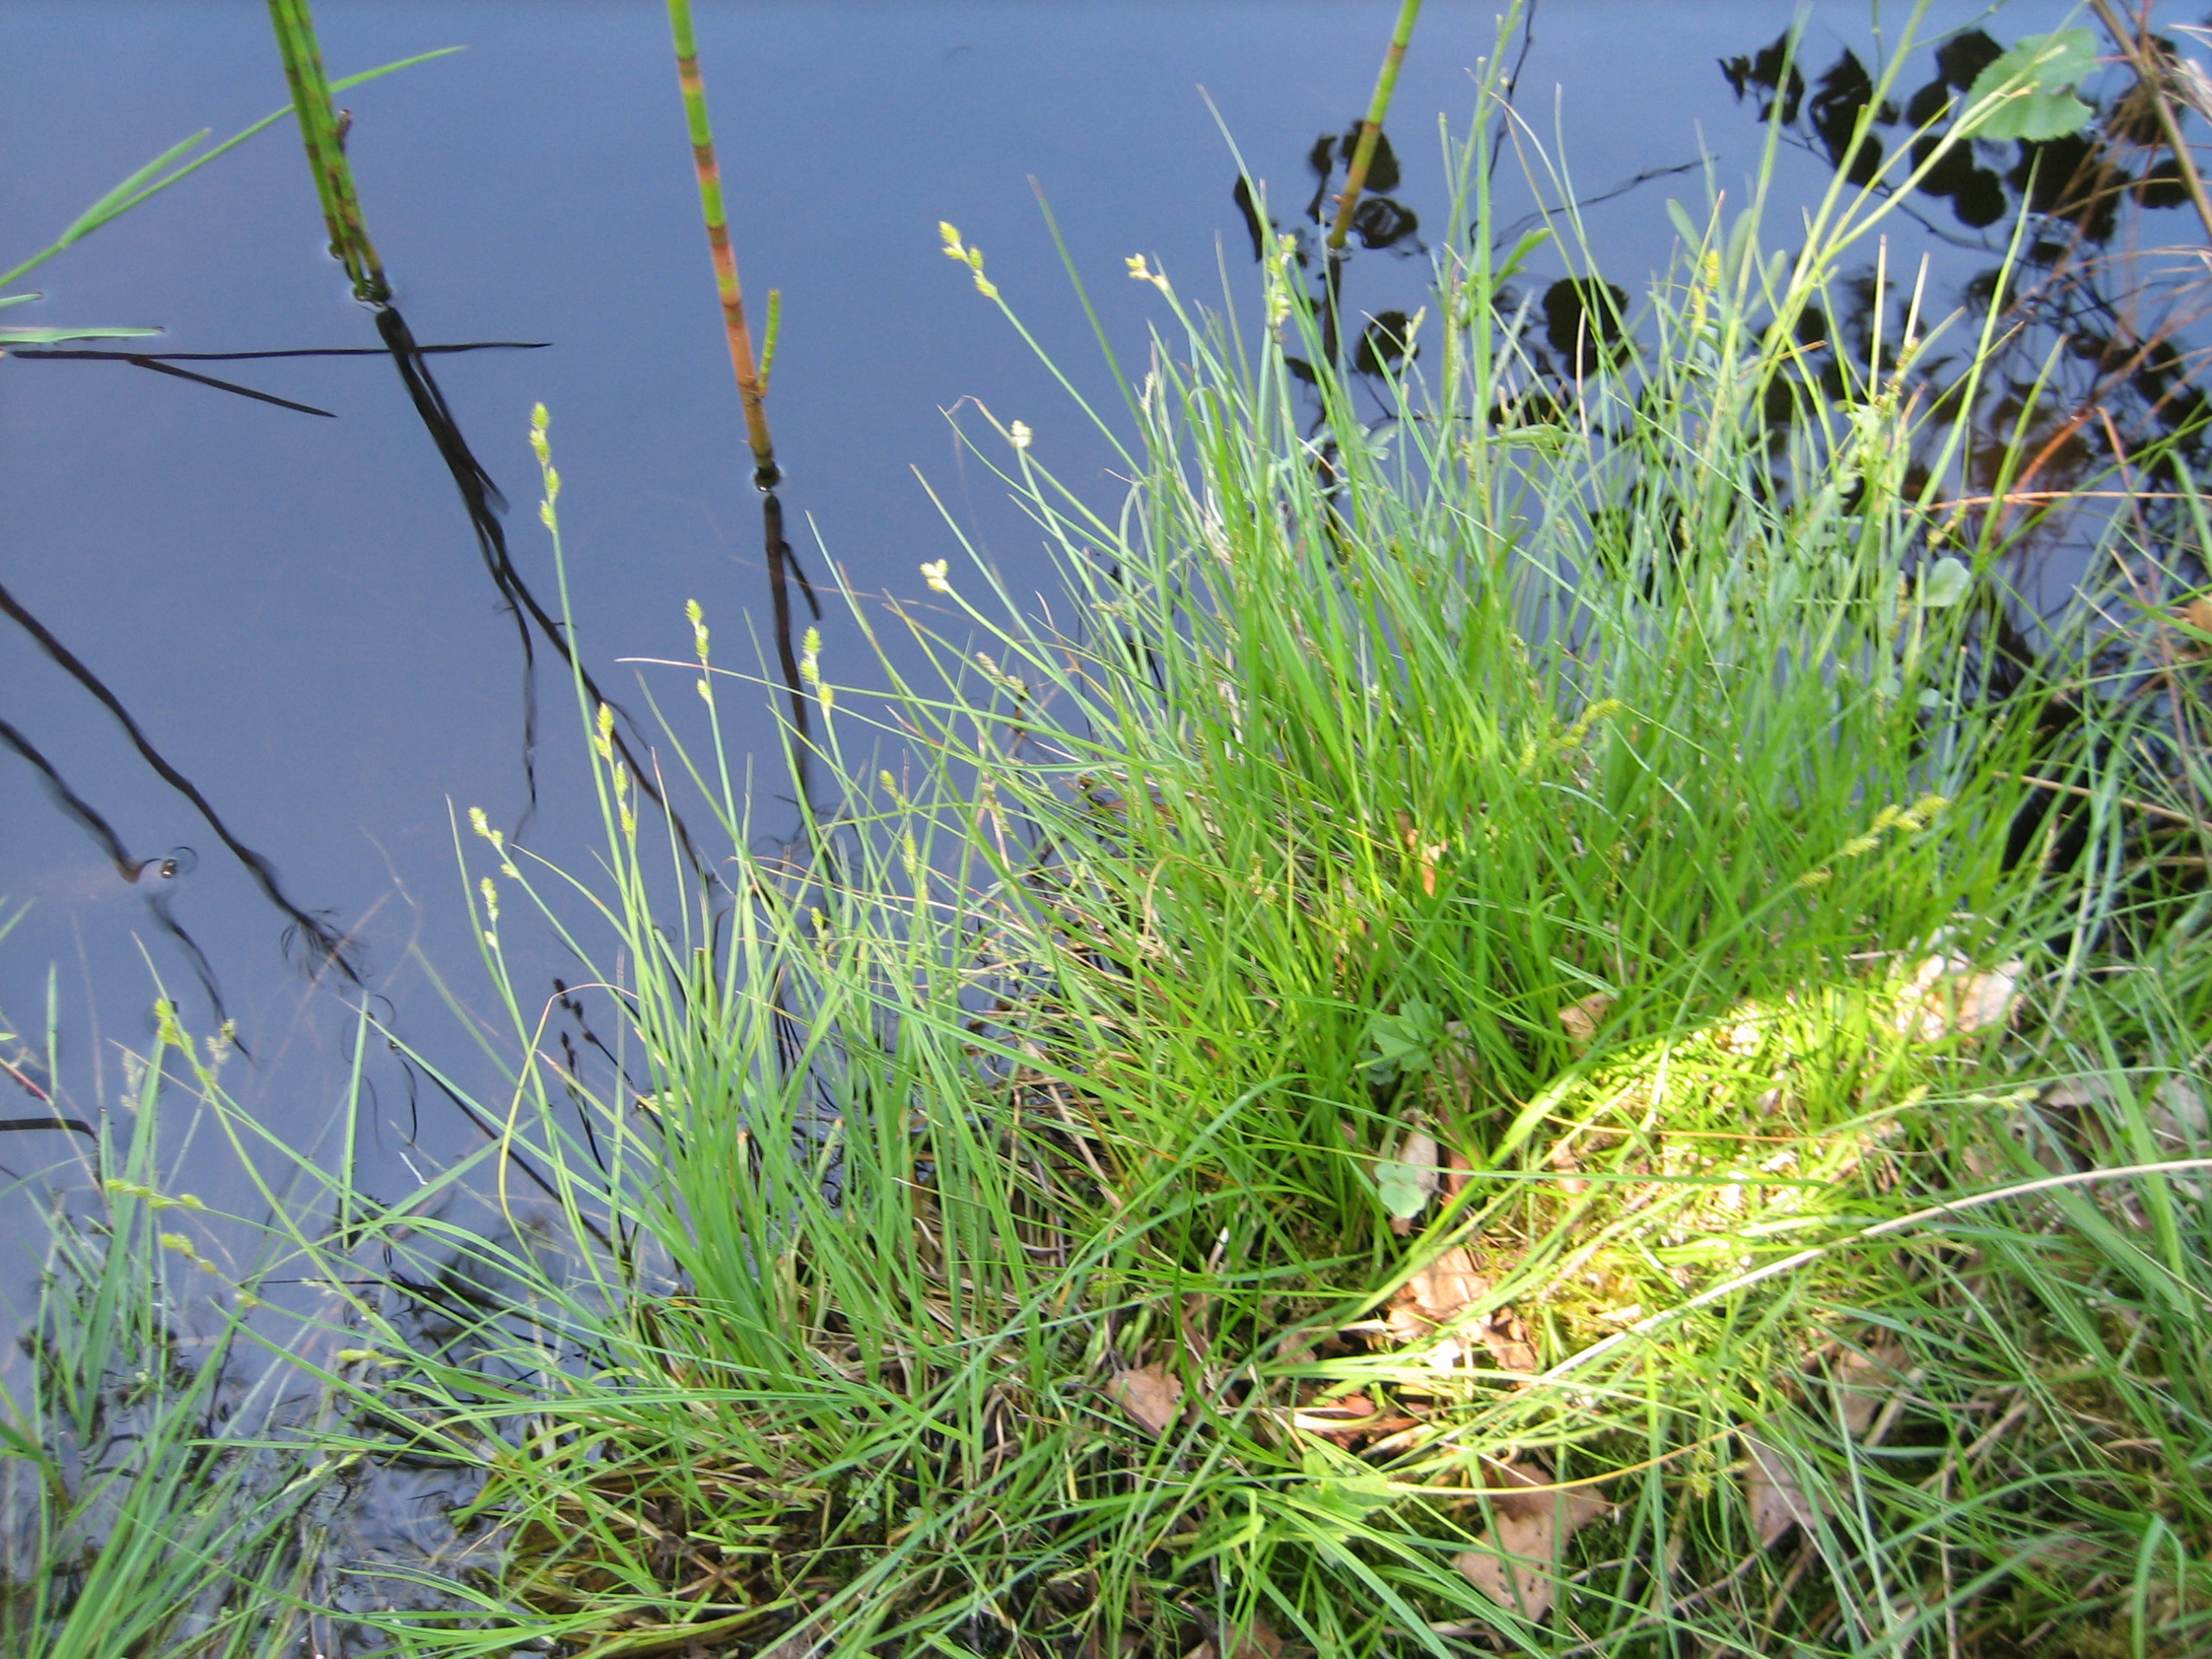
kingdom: Plantae
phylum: Tracheophyta
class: Liliopsida
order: Poales
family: Cyperaceae
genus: Carex
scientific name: Carex canescens
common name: Grå star
